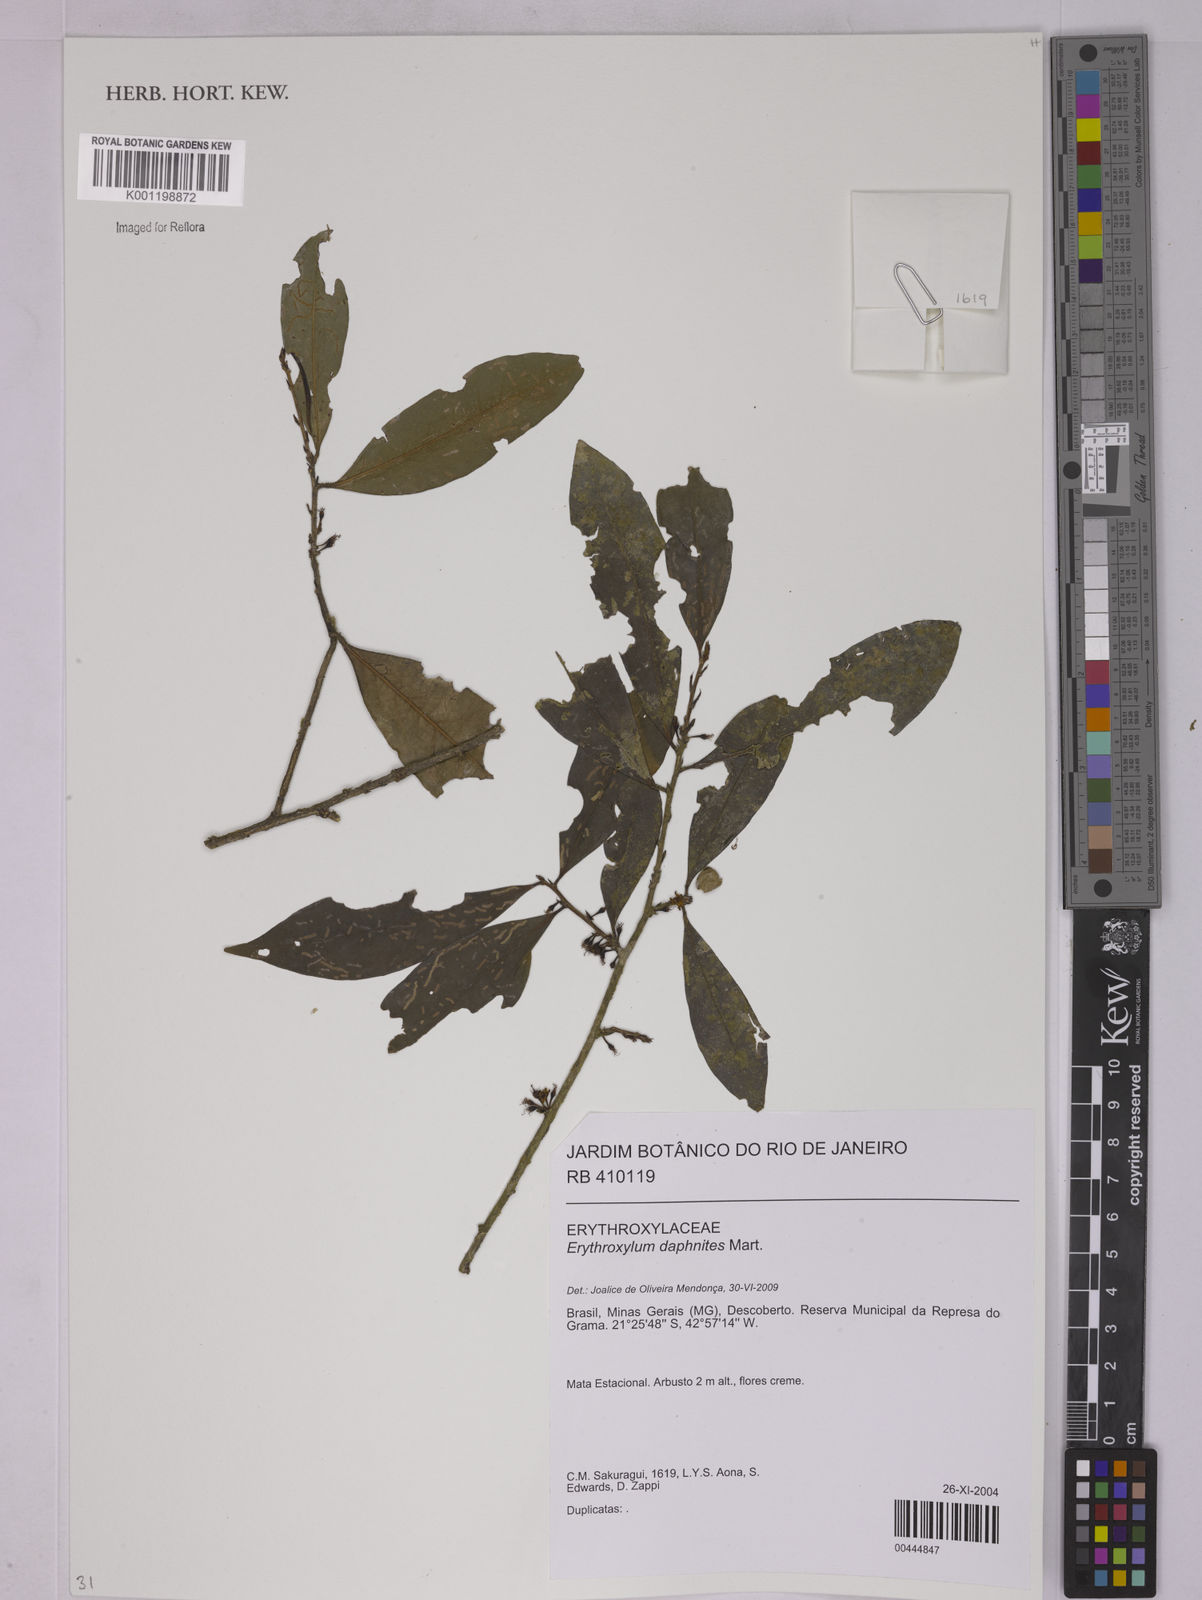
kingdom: Plantae
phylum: Tracheophyta
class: Magnoliopsida
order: Malpighiales
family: Erythroxylaceae
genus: Erythroxylum
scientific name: Erythroxylum daphnites
